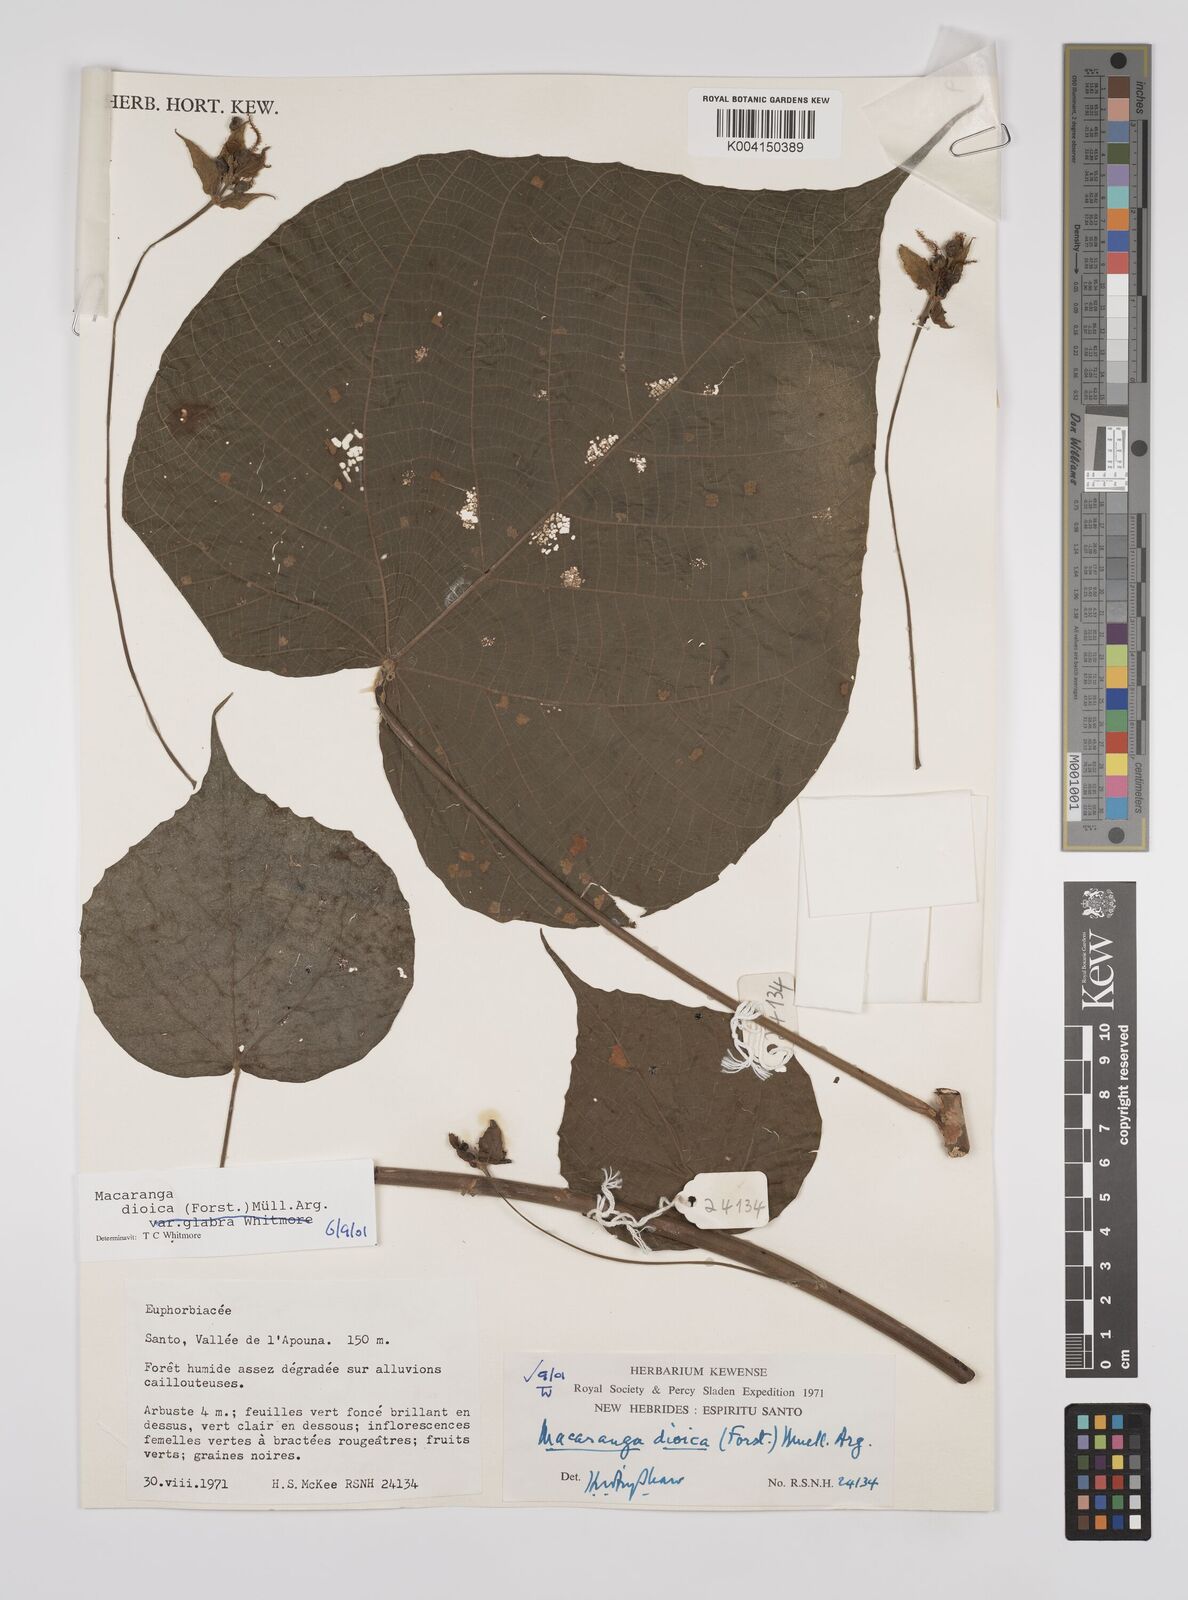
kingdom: Plantae
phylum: Tracheophyta
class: Magnoliopsida
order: Malpighiales
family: Euphorbiaceae
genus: Macaranga
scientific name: Macaranga dioica
